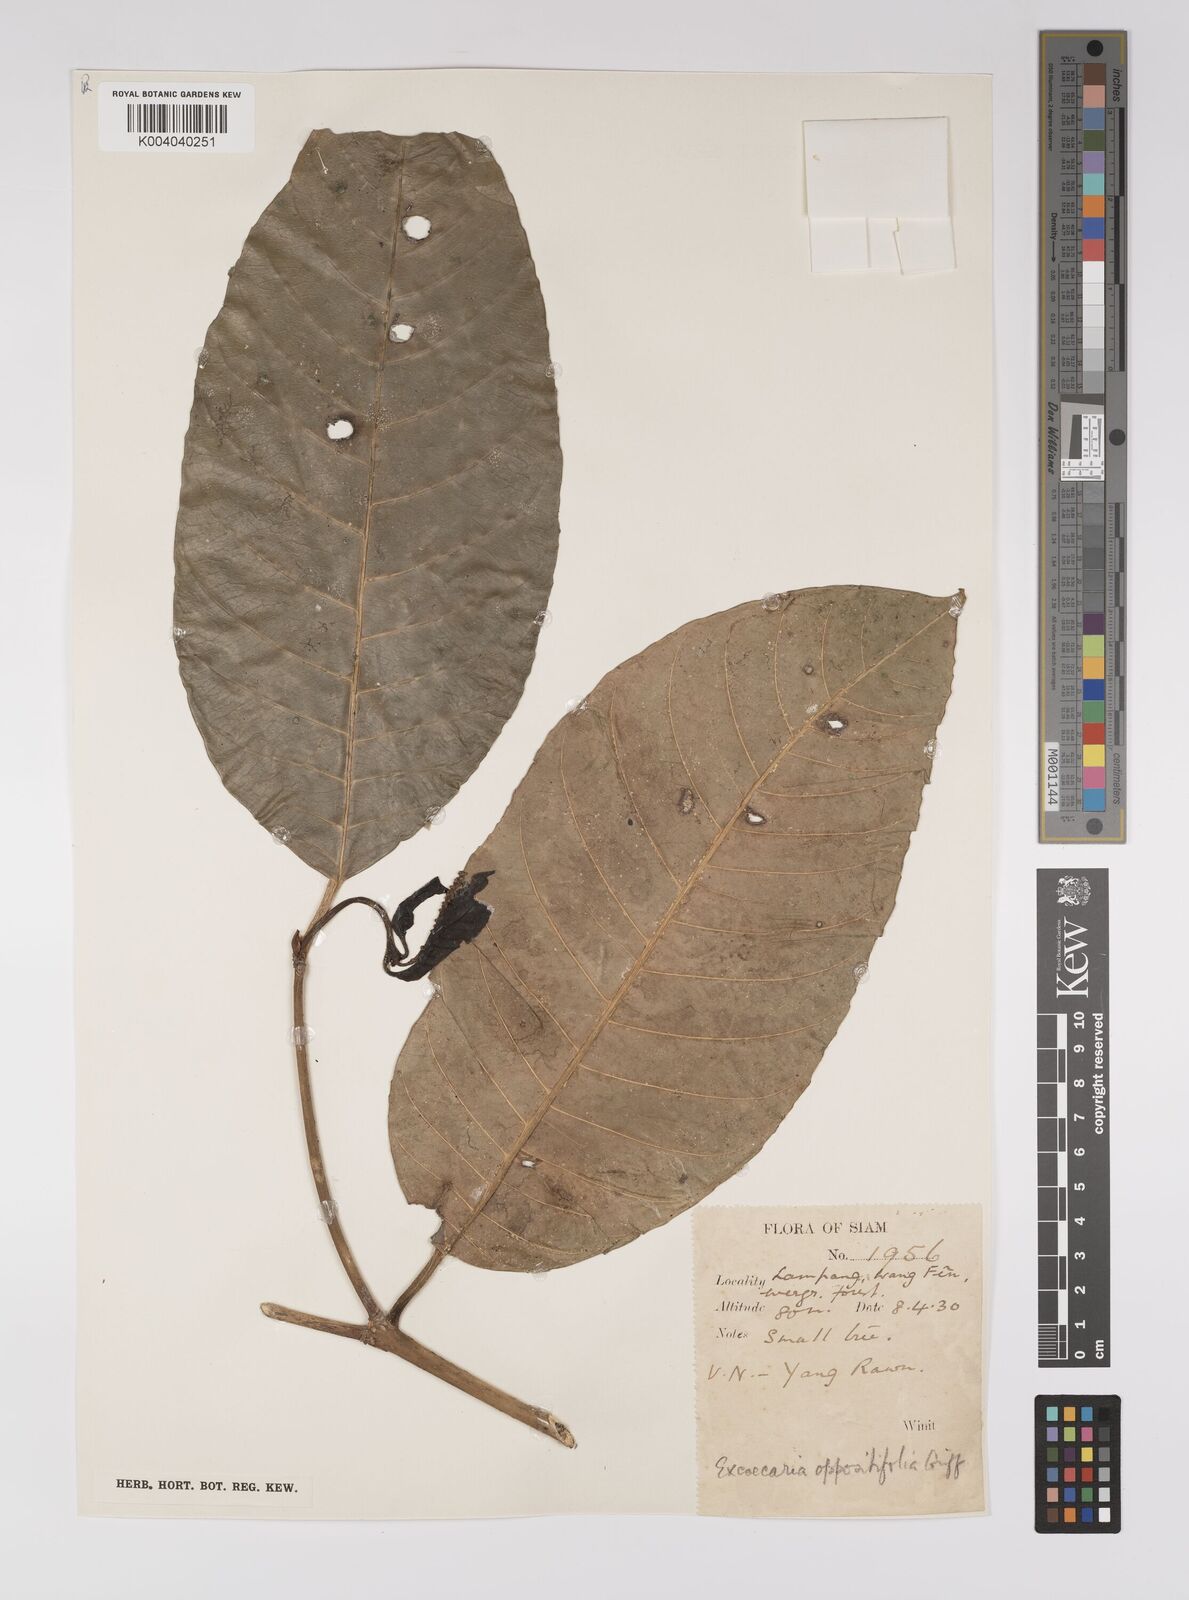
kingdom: Plantae
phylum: Tracheophyta
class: Magnoliopsida
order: Malpighiales
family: Euphorbiaceae
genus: Excoecaria
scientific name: Excoecaria oppositifolia
